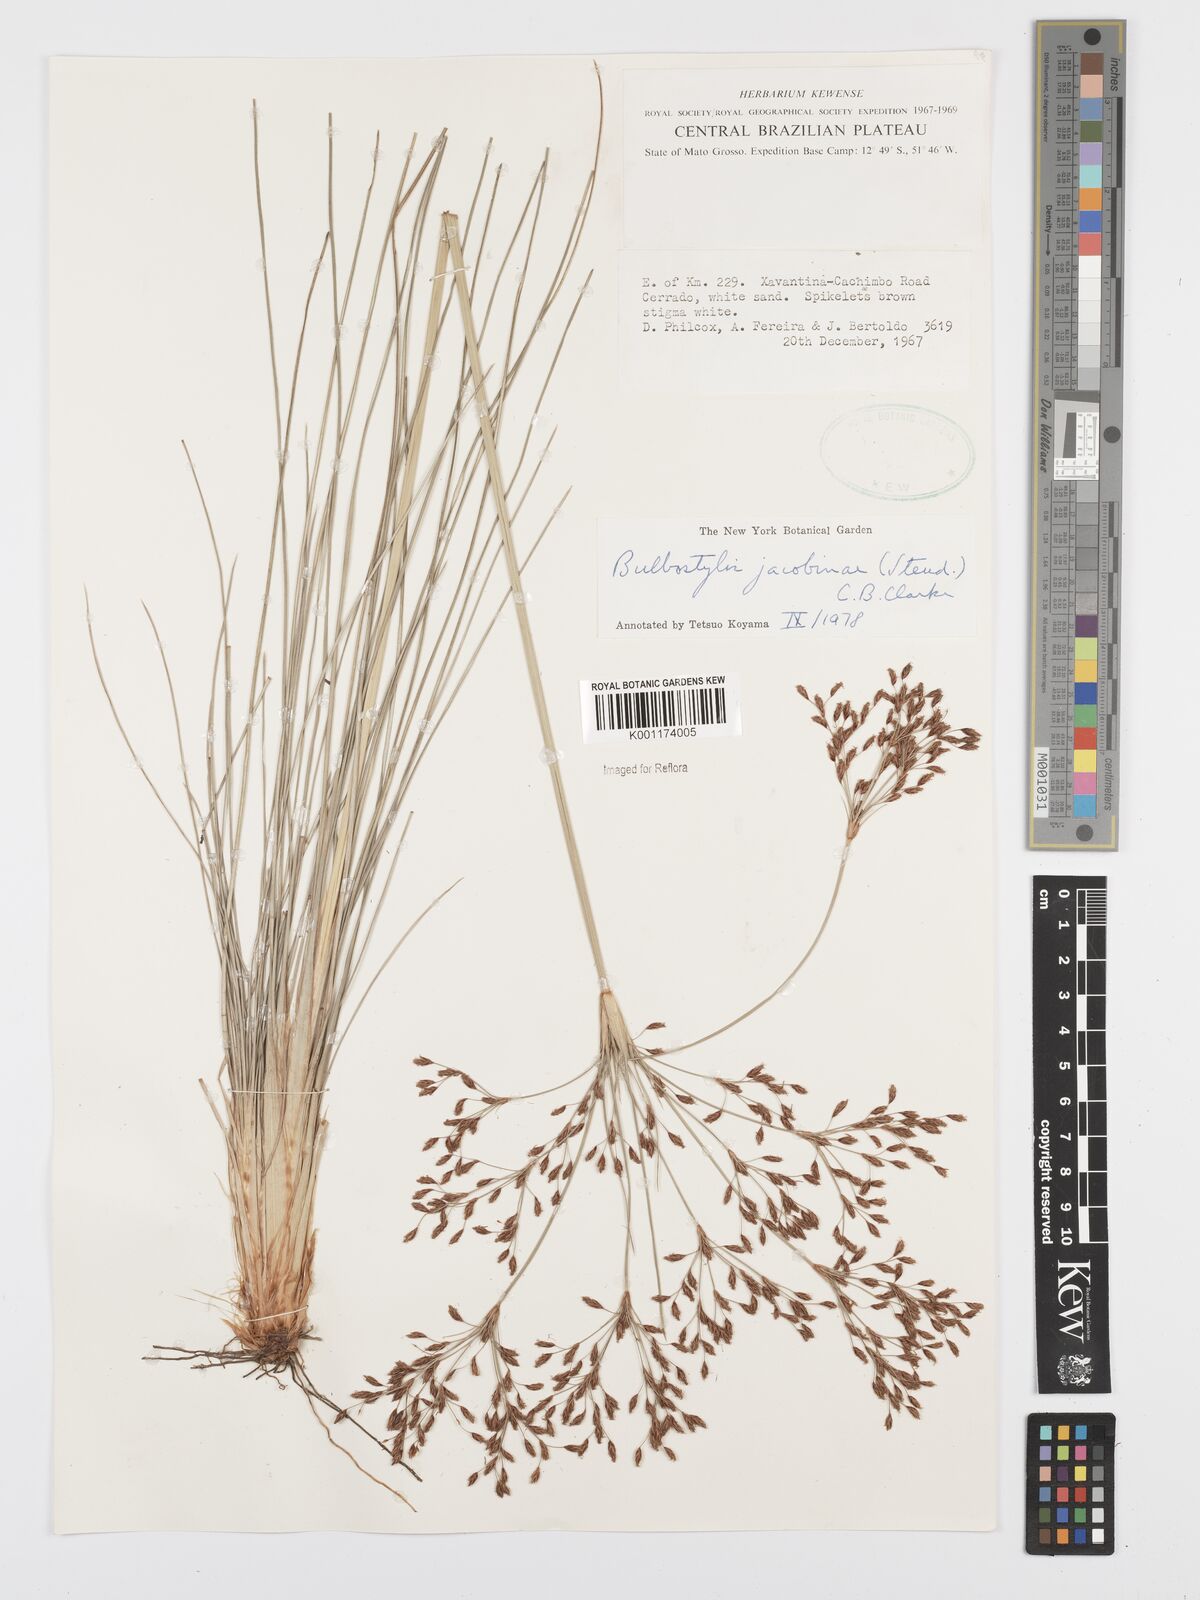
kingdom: Plantae
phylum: Tracheophyta
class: Liliopsida
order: Poales
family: Cyperaceae
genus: Bulbostylis
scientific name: Bulbostylis jacobinae
